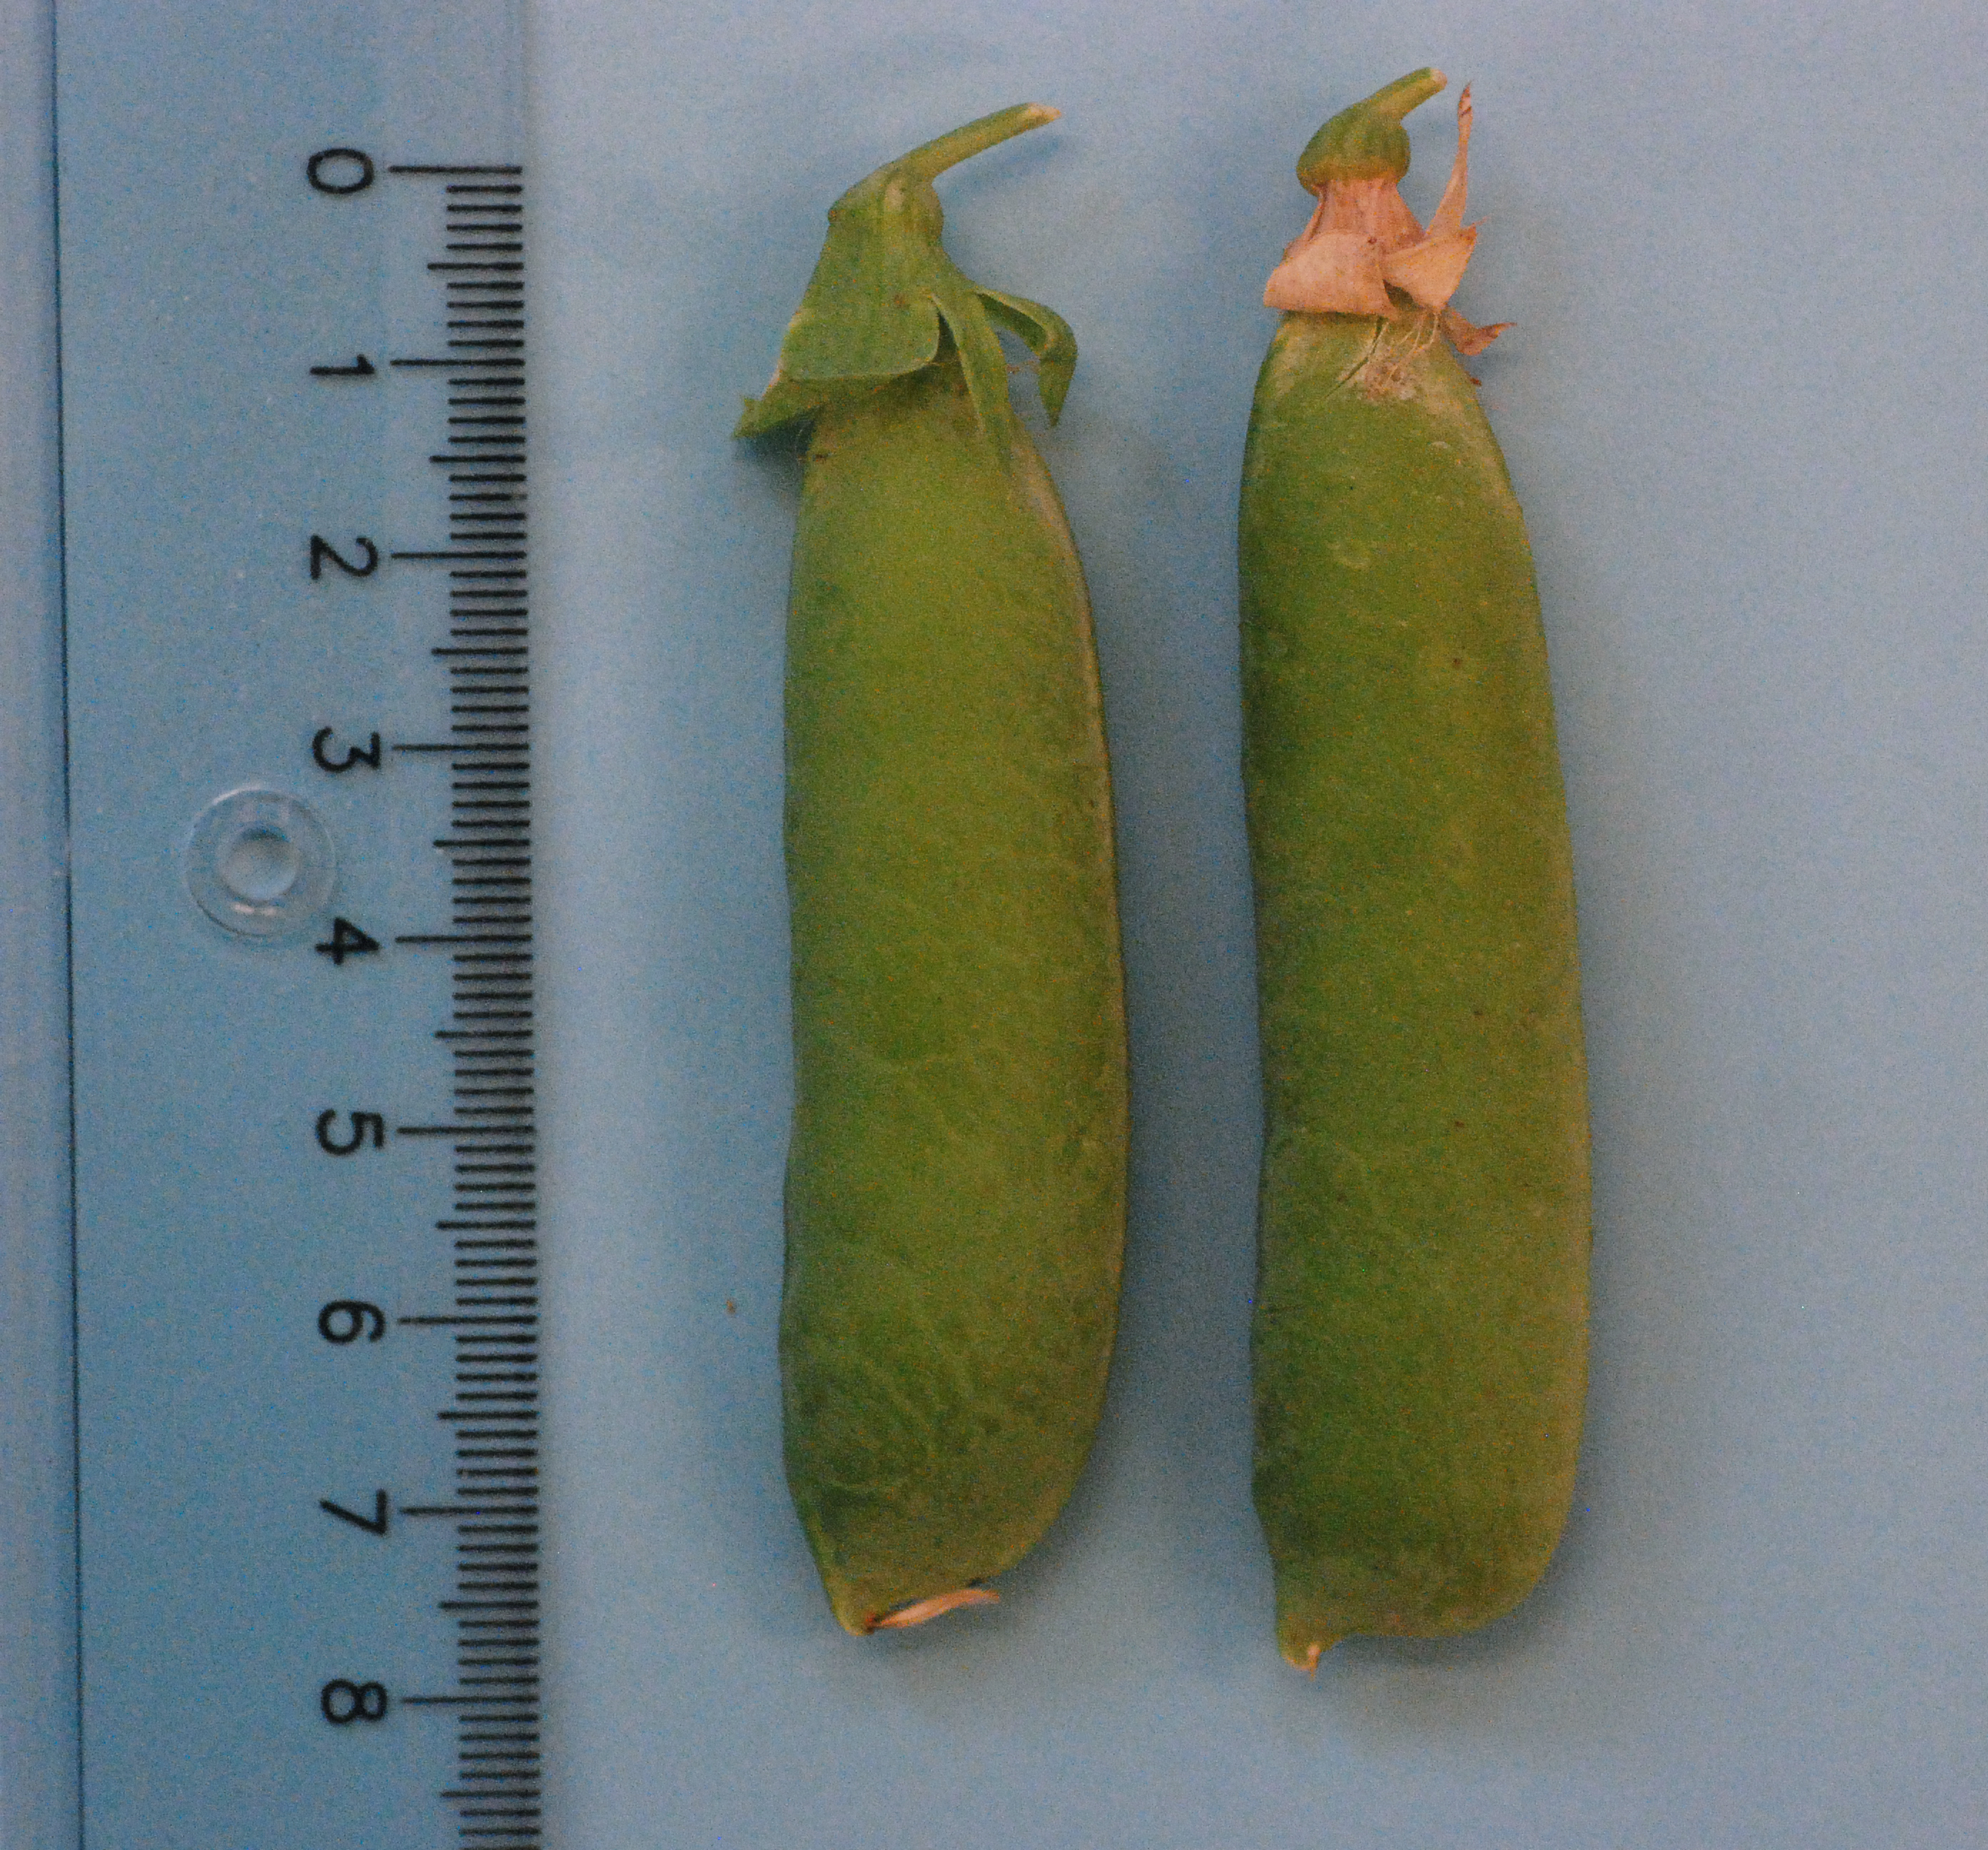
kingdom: Plantae
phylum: Tracheophyta
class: Magnoliopsida
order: Fabales
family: Fabaceae
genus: Lathyrus
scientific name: Lathyrus oleraceus
